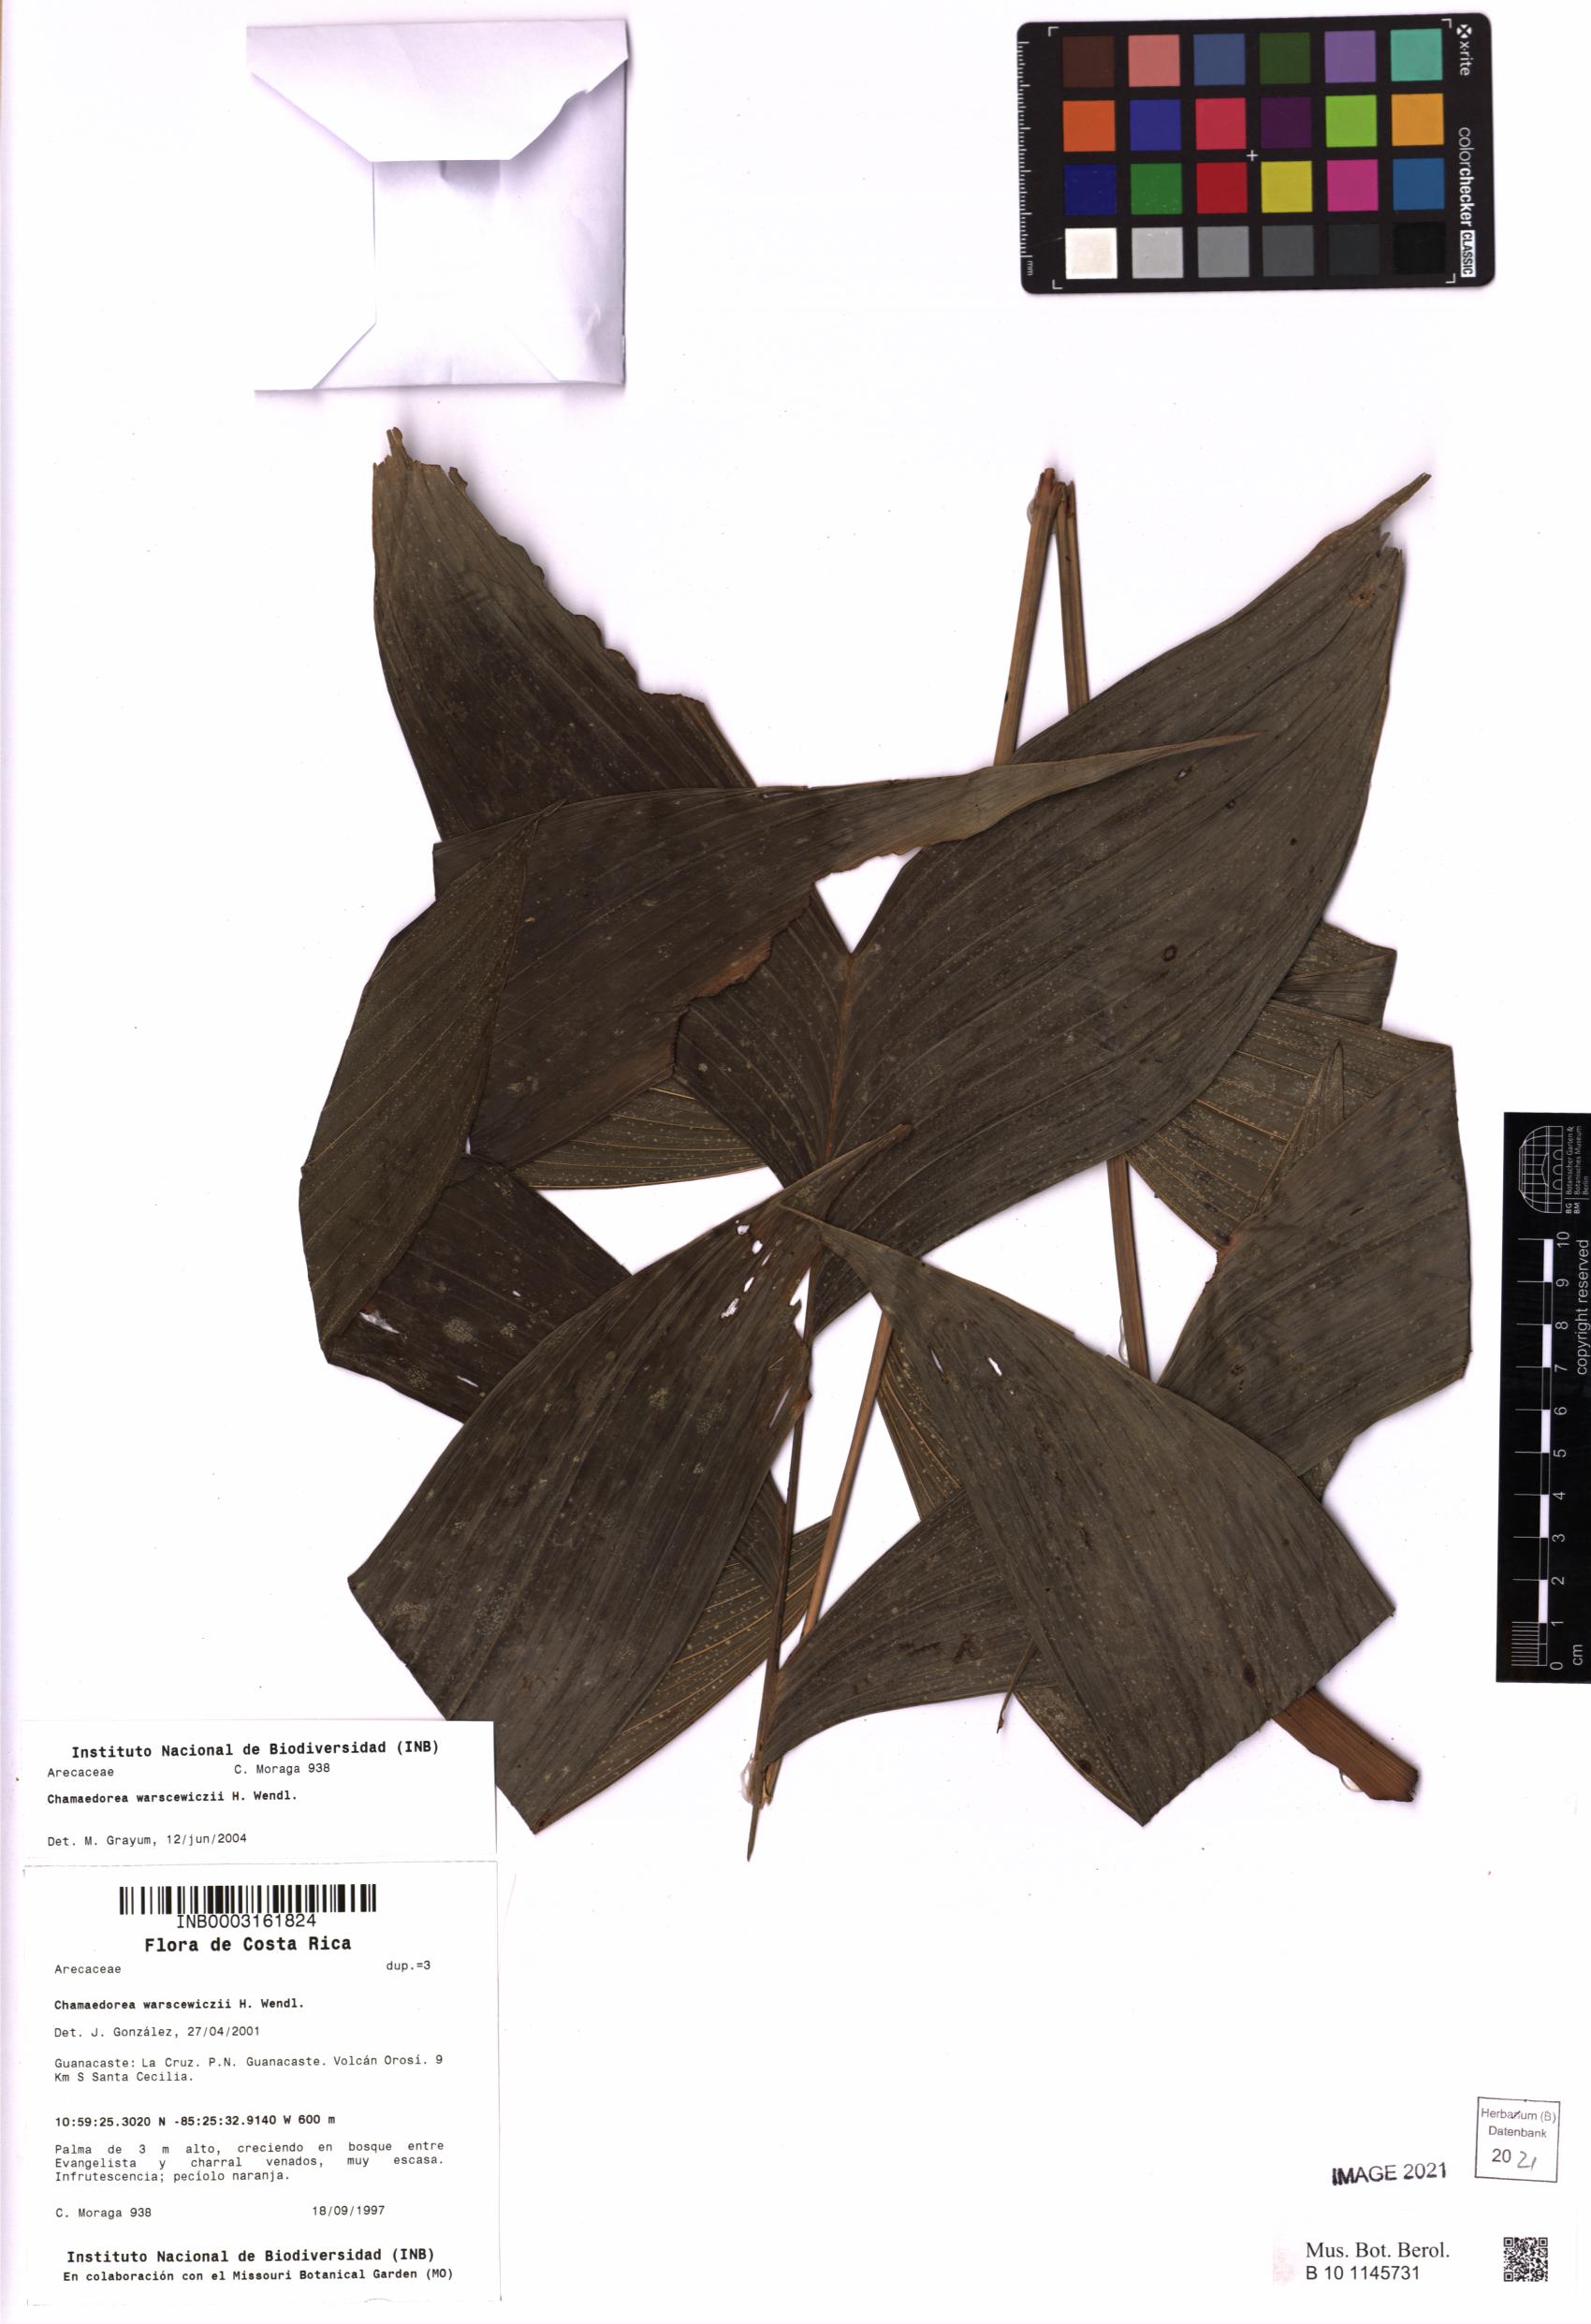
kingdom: Plantae
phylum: Tracheophyta
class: Liliopsida
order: Arecales
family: Arecaceae
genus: Chamaedorea
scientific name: Chamaedorea warscewiczii
